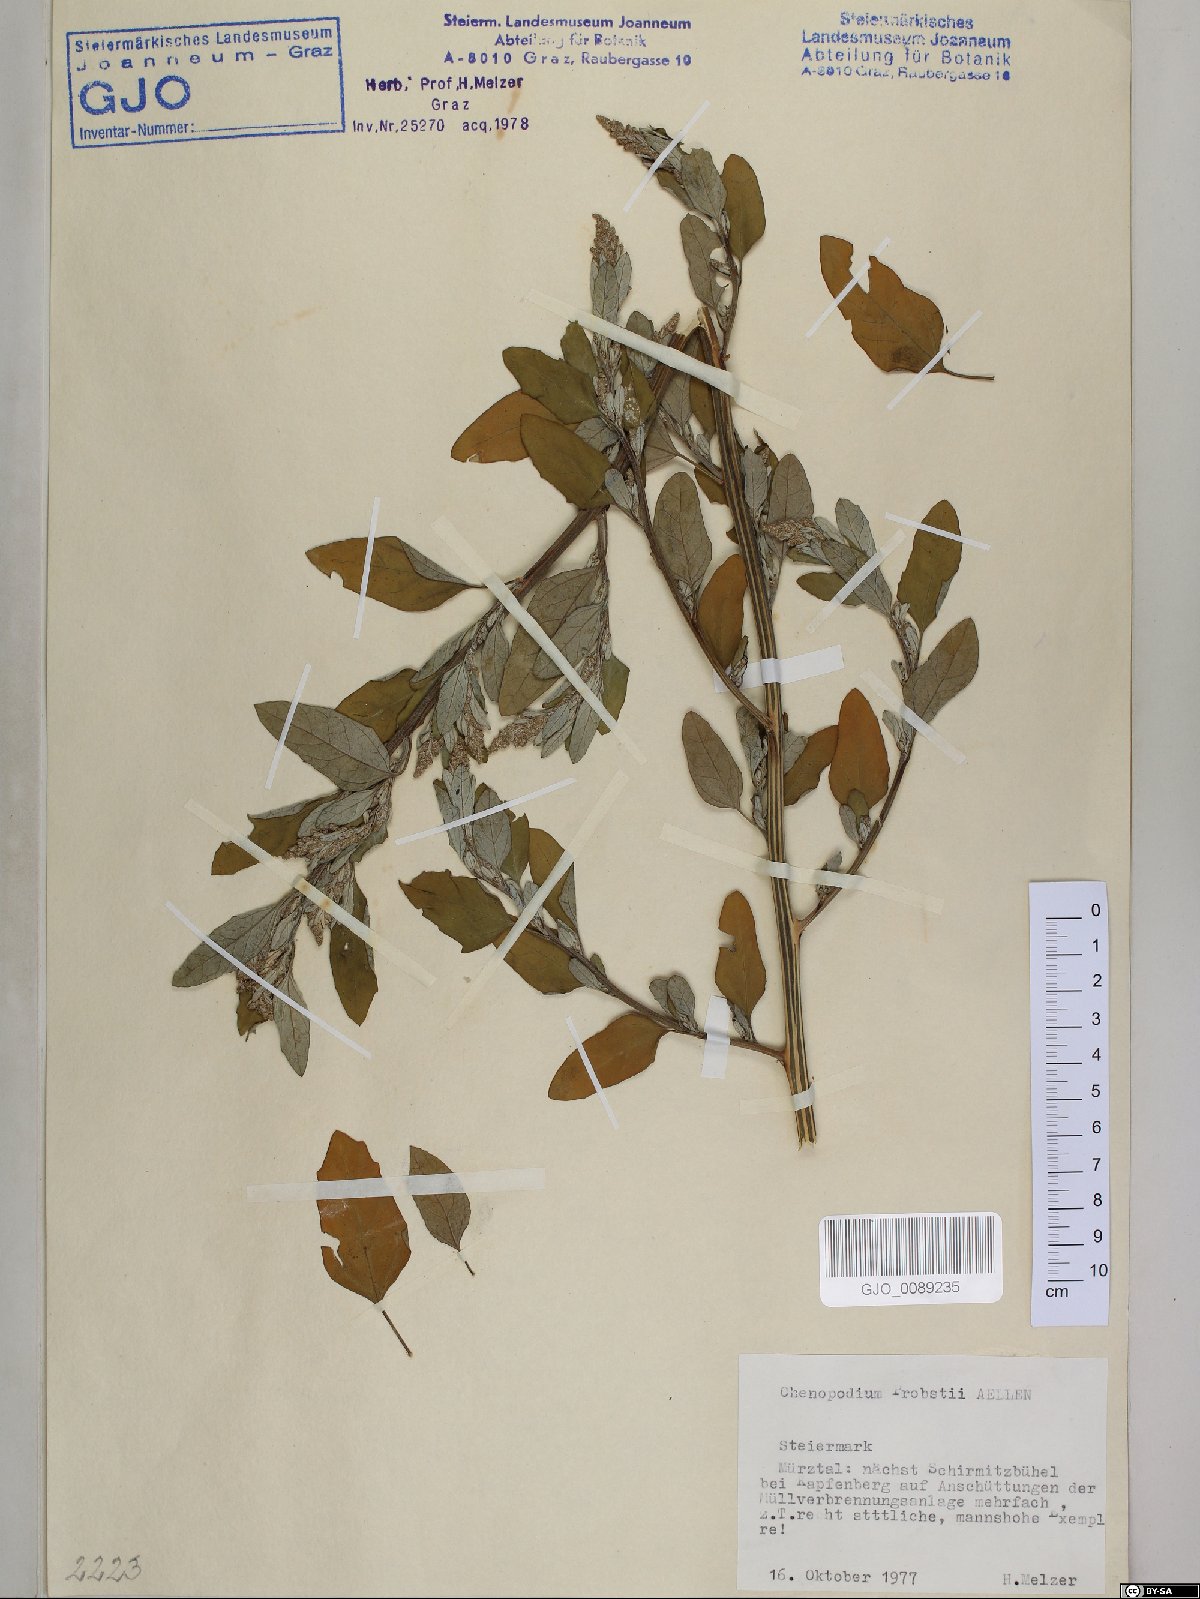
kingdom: Plantae
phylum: Tracheophyta
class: Magnoliopsida
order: Caryophyllales
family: Amaranthaceae
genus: Chenopodium
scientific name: Chenopodium probstii
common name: Probst's goosefoot
